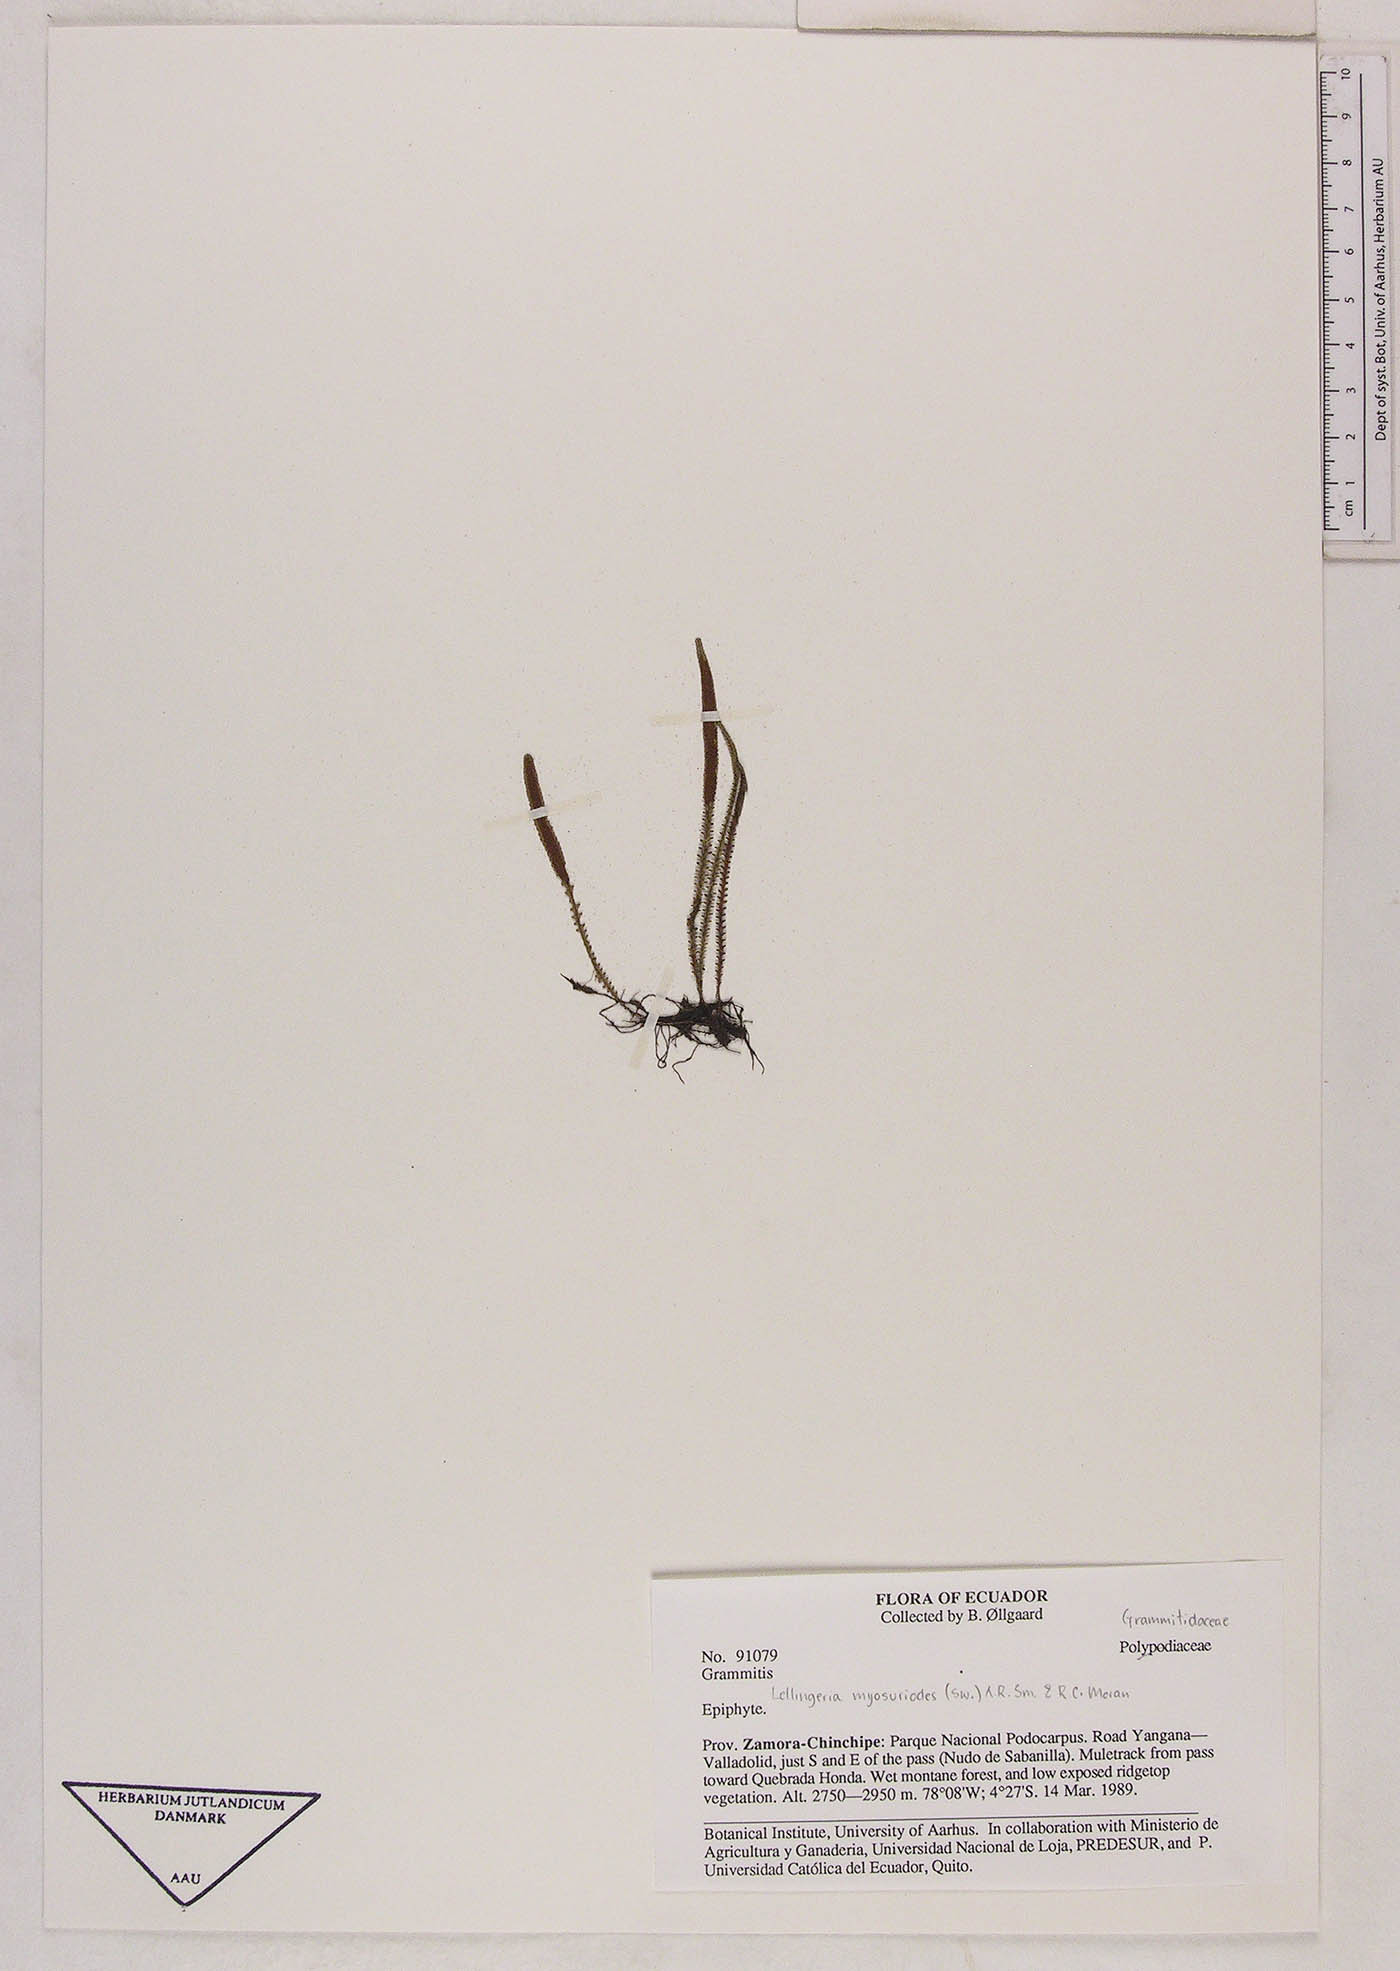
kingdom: Plantae
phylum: Tracheophyta
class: Polypodiopsida
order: Polypodiales
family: Polypodiaceae
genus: Stenogrammitis
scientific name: Stenogrammitis jamesonii
